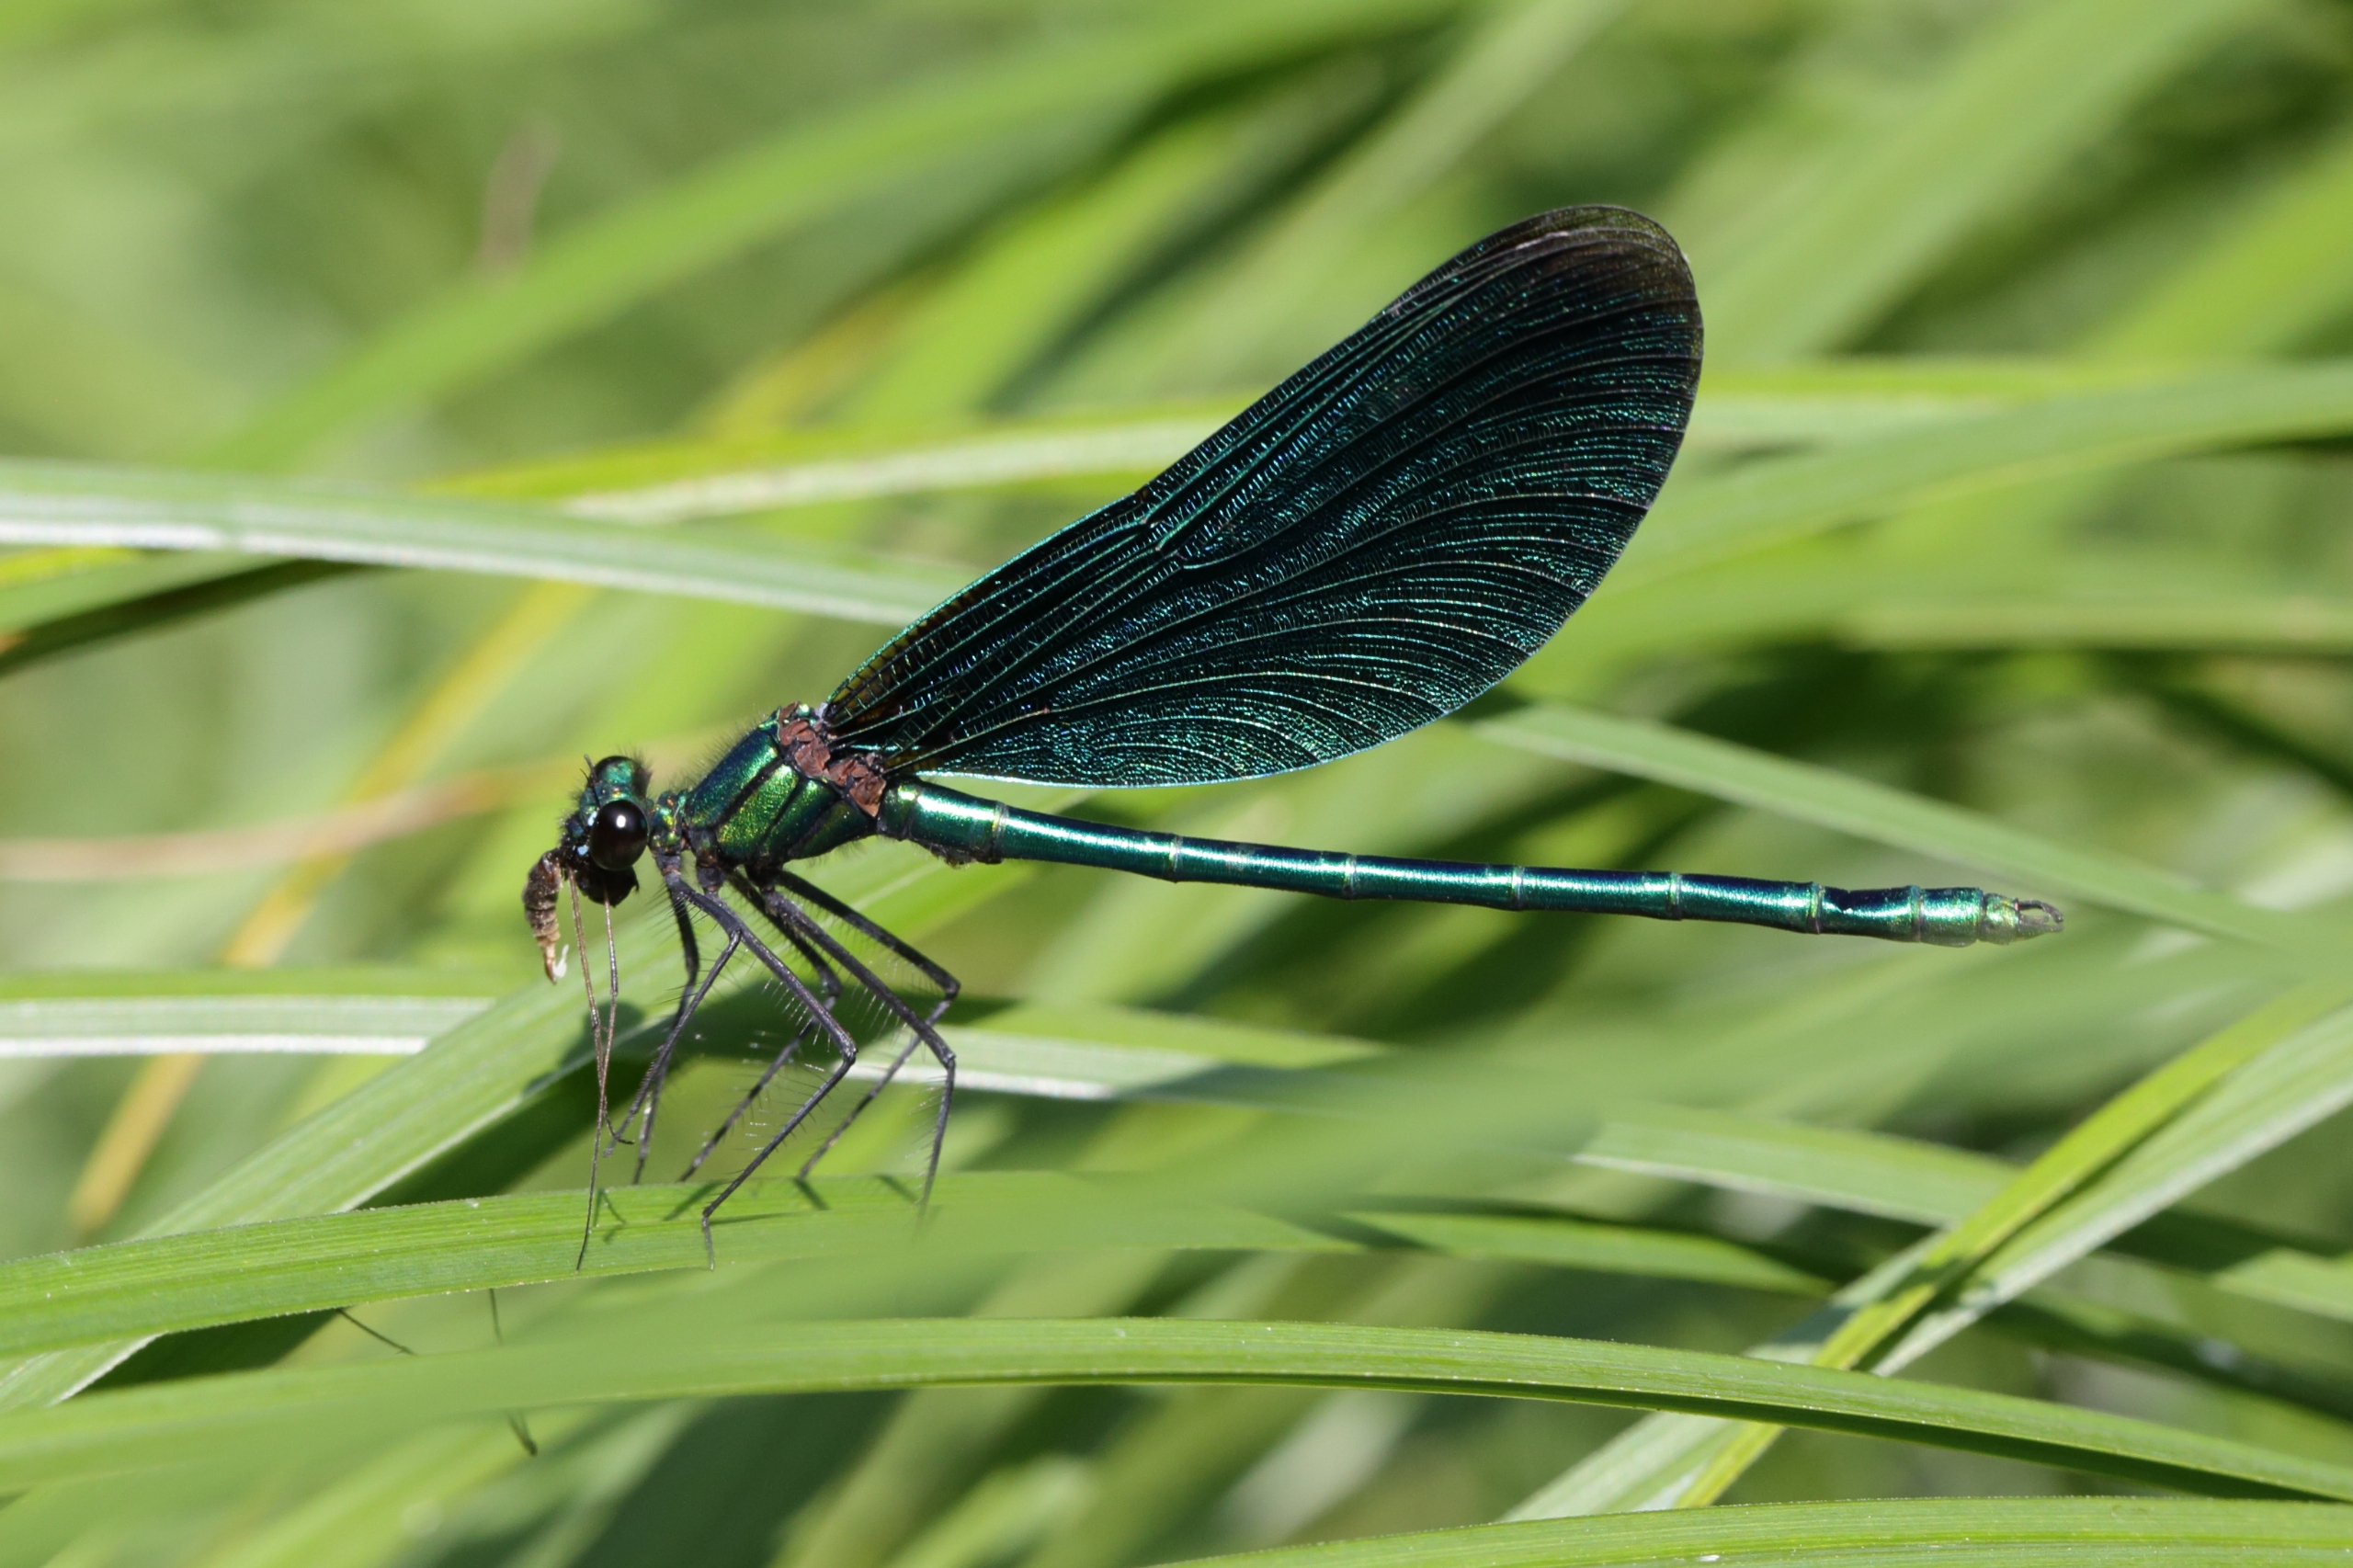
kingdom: Animalia
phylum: Arthropoda
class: Insecta
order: Odonata
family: Calopterygidae
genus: Calopteryx
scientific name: Calopteryx virgo
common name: Blåvinget pragtvandnymfe
